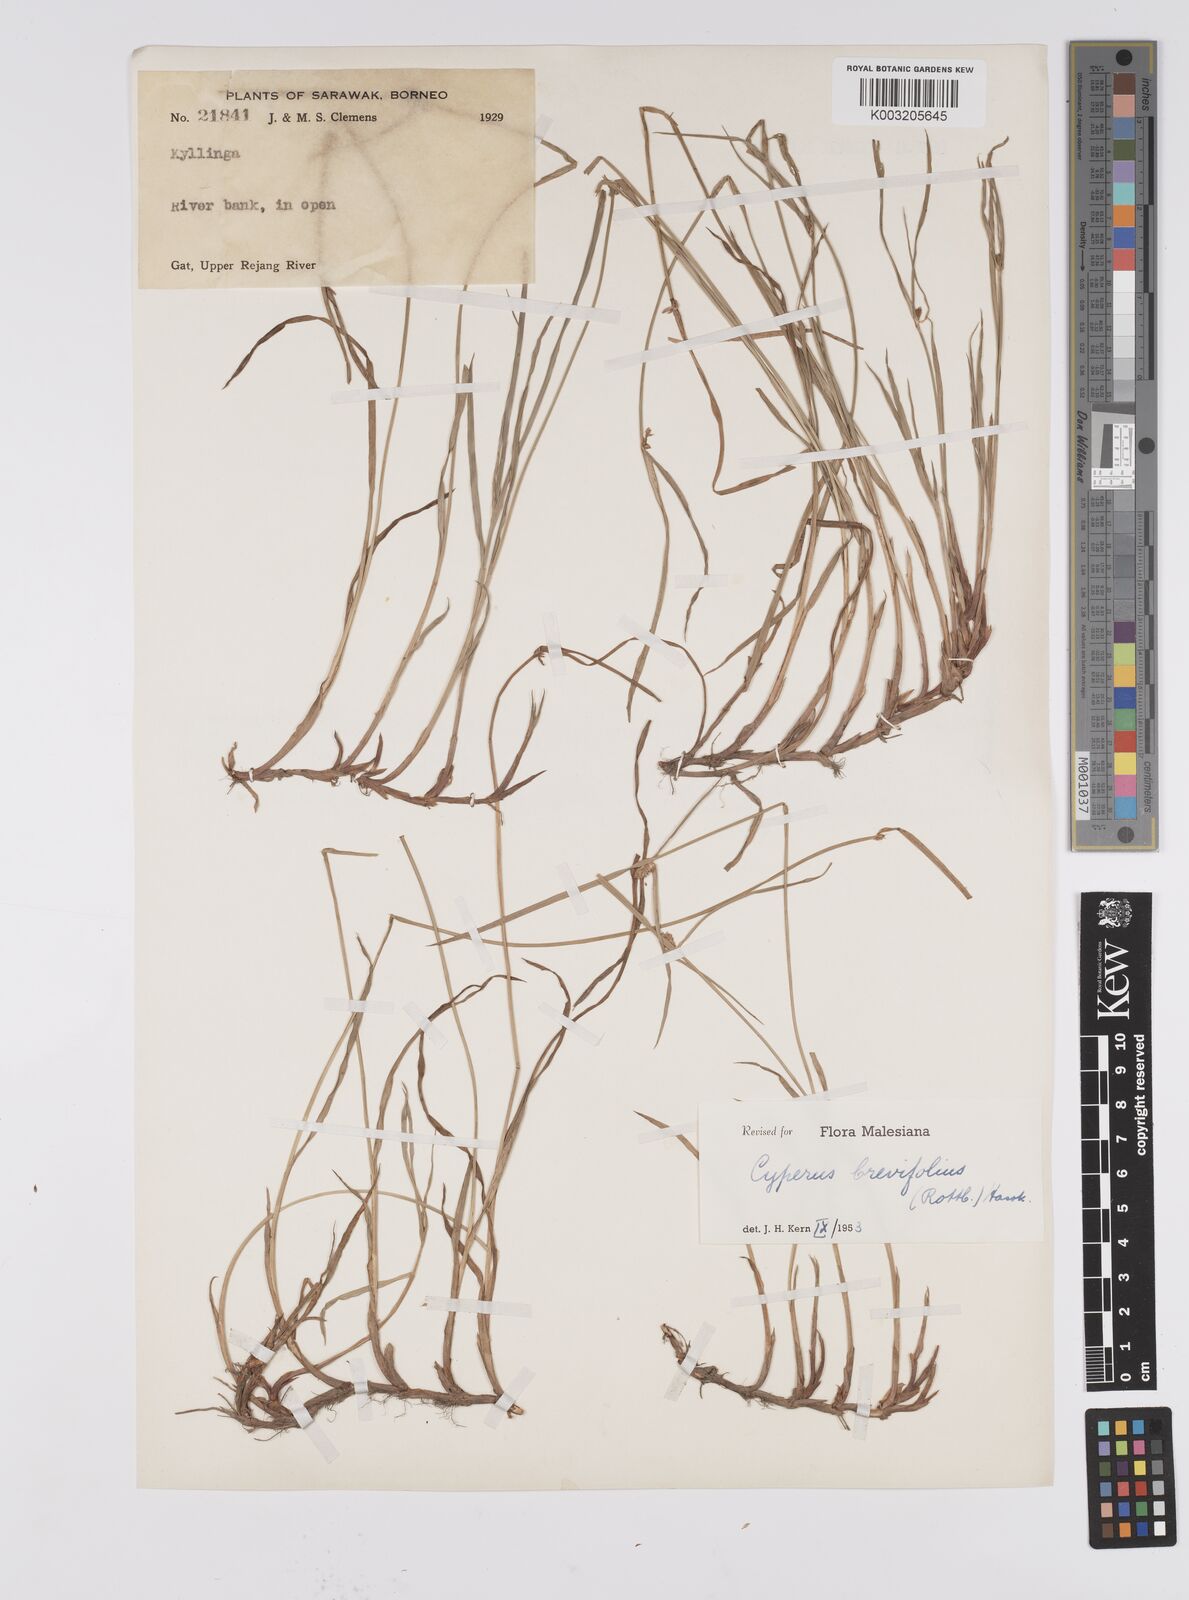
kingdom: Plantae
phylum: Tracheophyta
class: Liliopsida
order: Poales
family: Cyperaceae
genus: Cyperus
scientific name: Cyperus brevifolius
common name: Globe kyllinga
